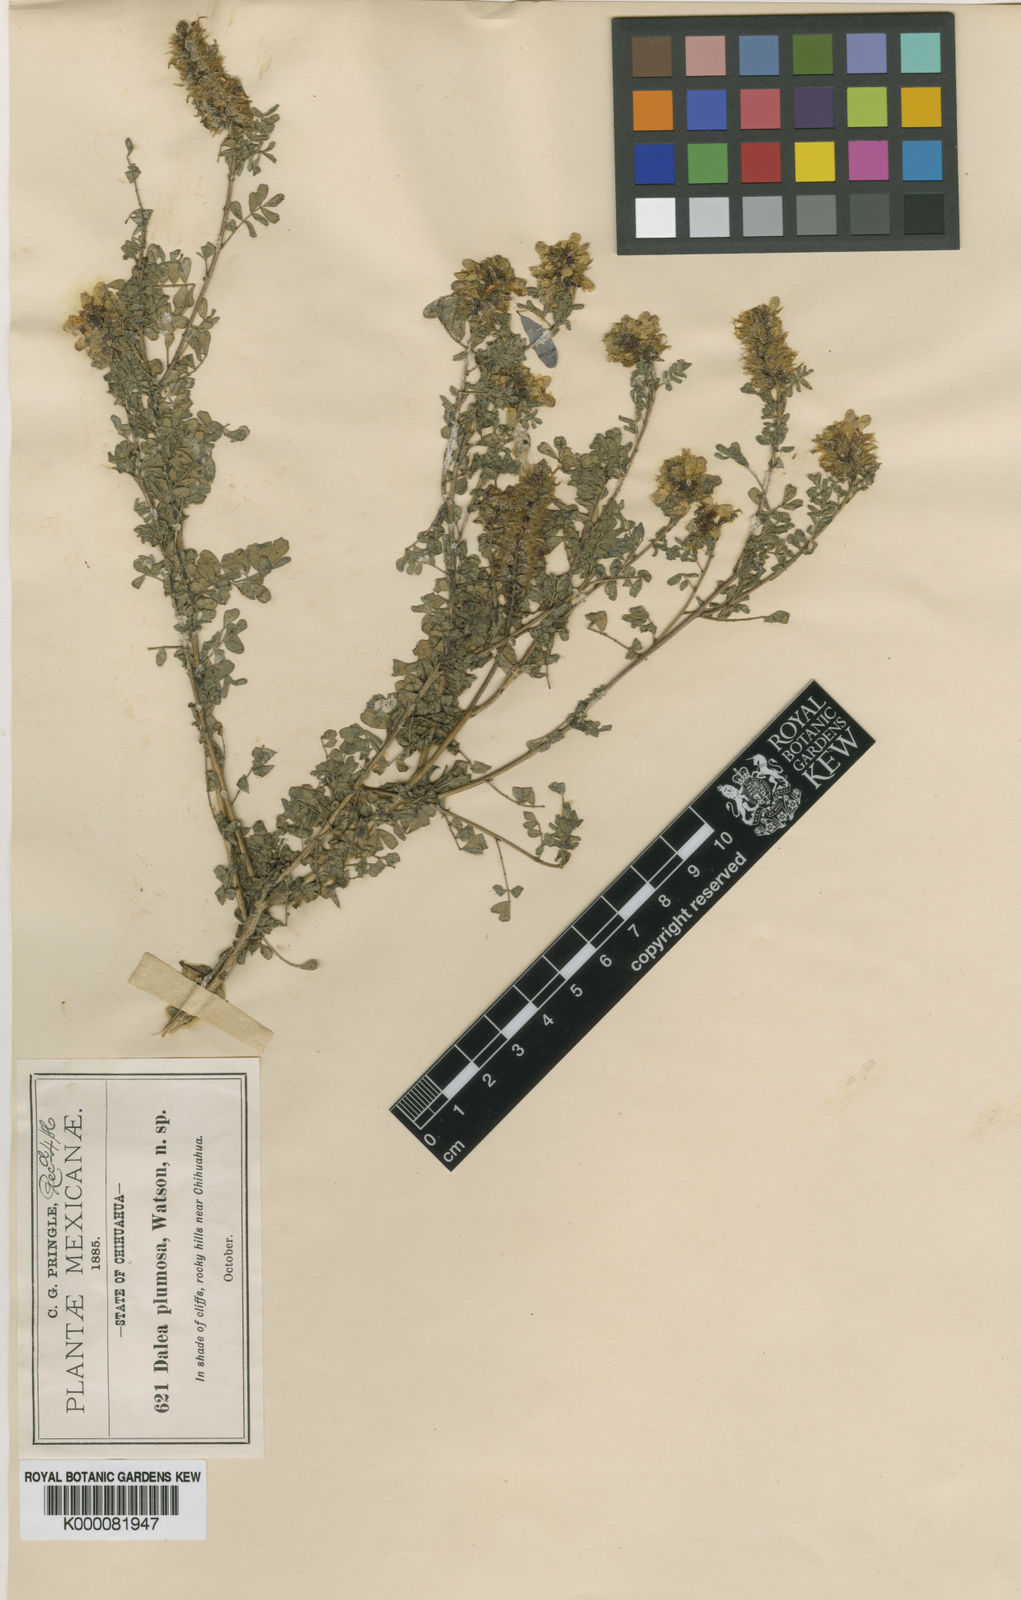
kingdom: Plantae
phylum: Tracheophyta
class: Magnoliopsida
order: Fabales
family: Fabaceae
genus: Dalea
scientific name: Dalea lutea
